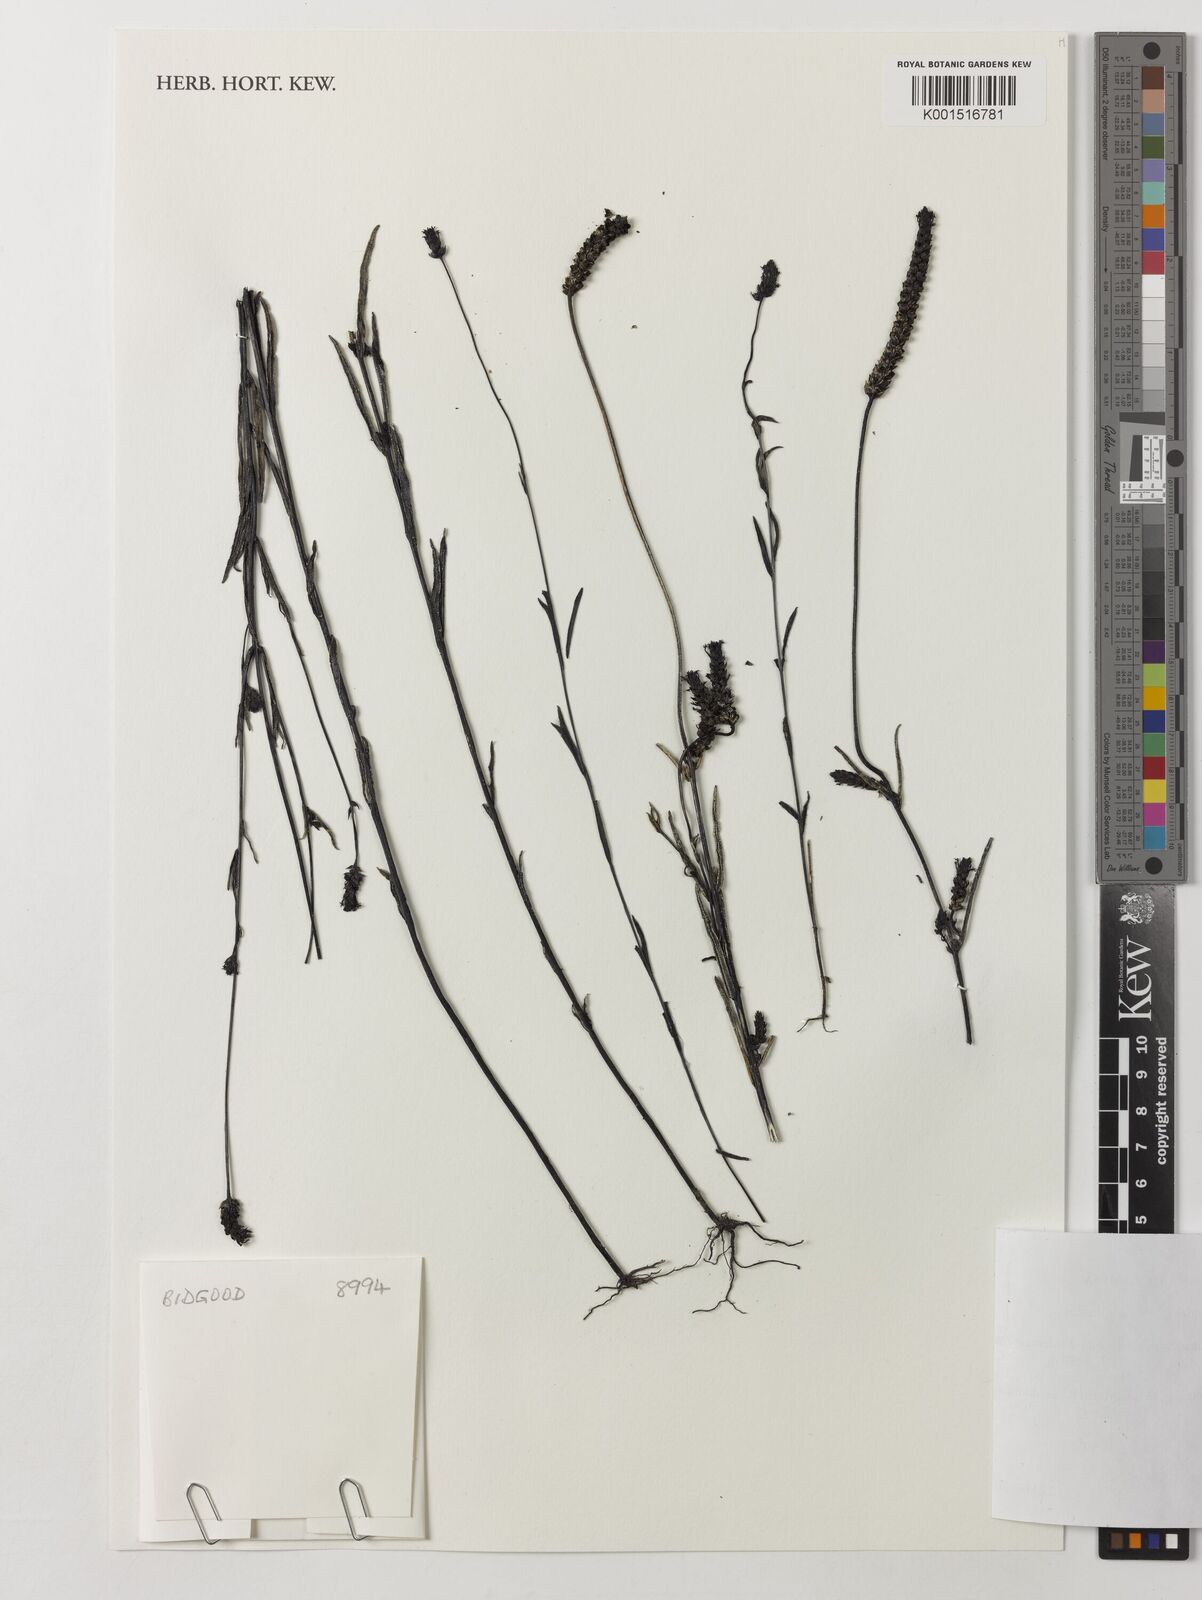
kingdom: Plantae
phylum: Tracheophyta
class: Magnoliopsida
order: Lamiales
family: Orobanchaceae
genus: Buchnera
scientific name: Buchnera buchneroides
